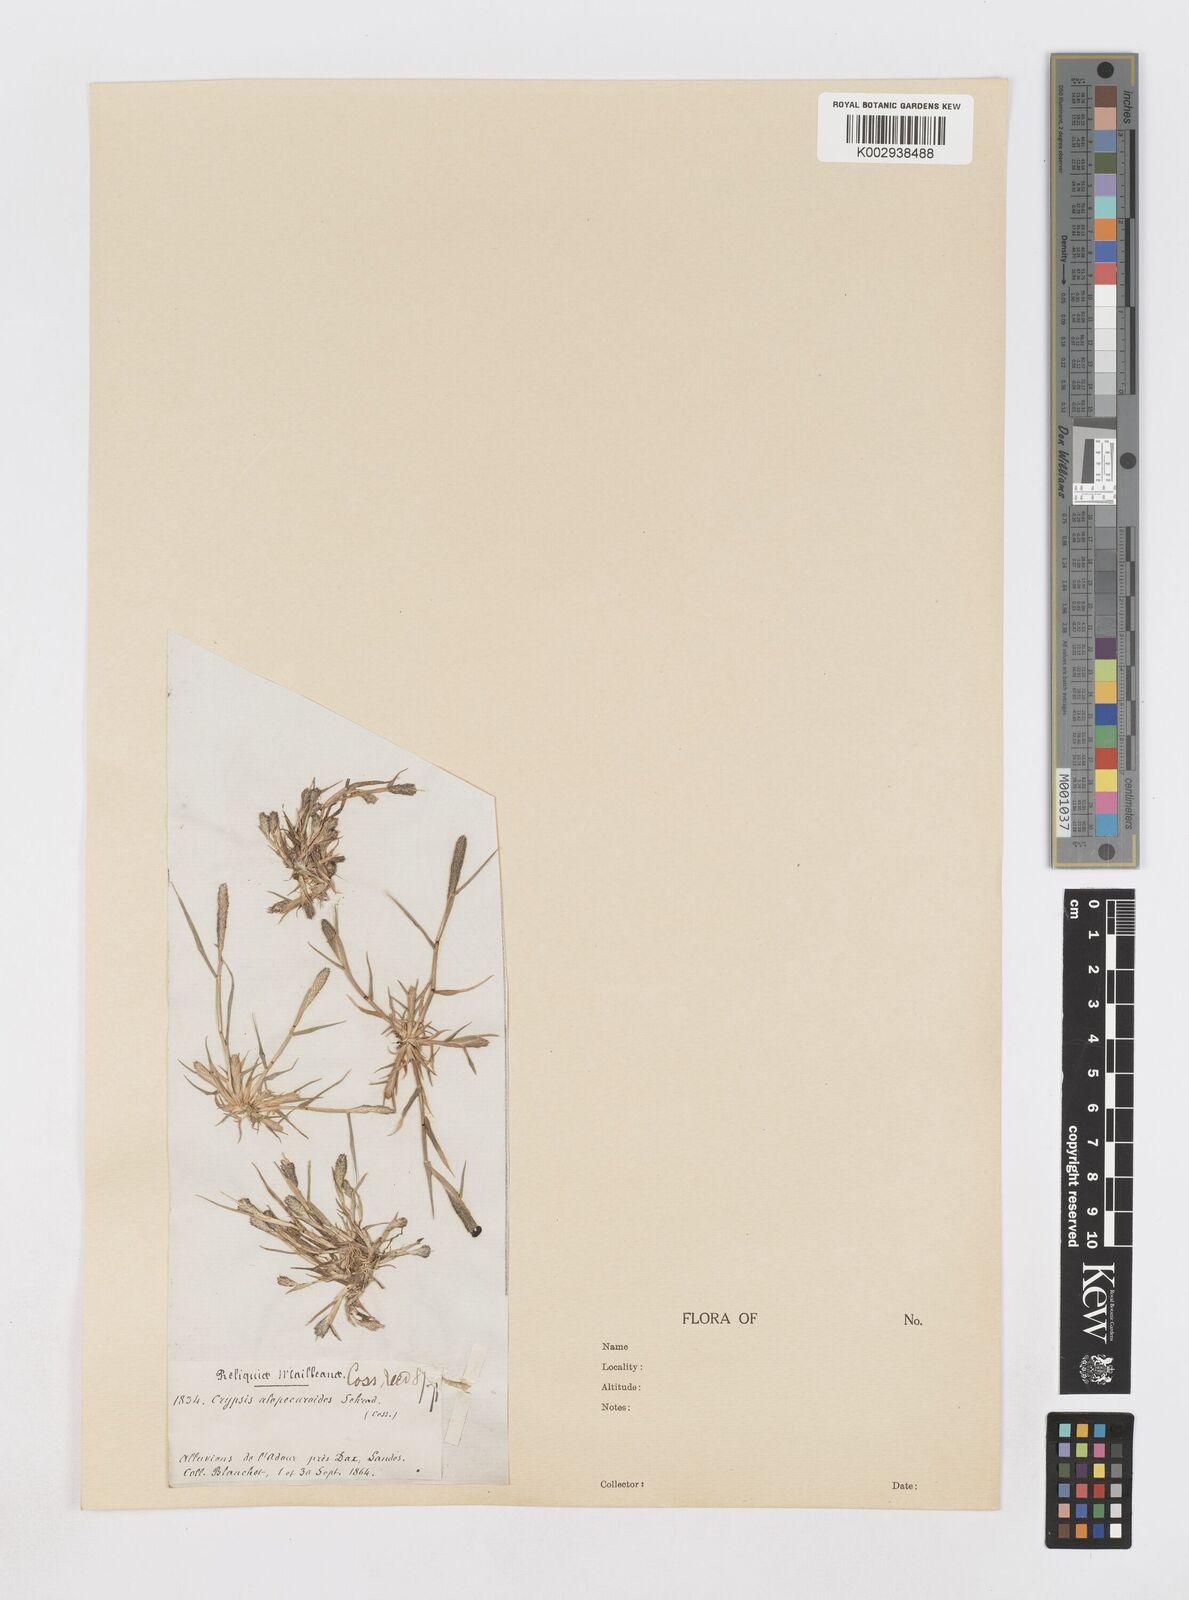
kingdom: Plantae
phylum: Tracheophyta
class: Liliopsida
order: Poales
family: Poaceae
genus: Sporobolus
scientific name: Sporobolus alopecuroides
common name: Foxtail pricklegrass
